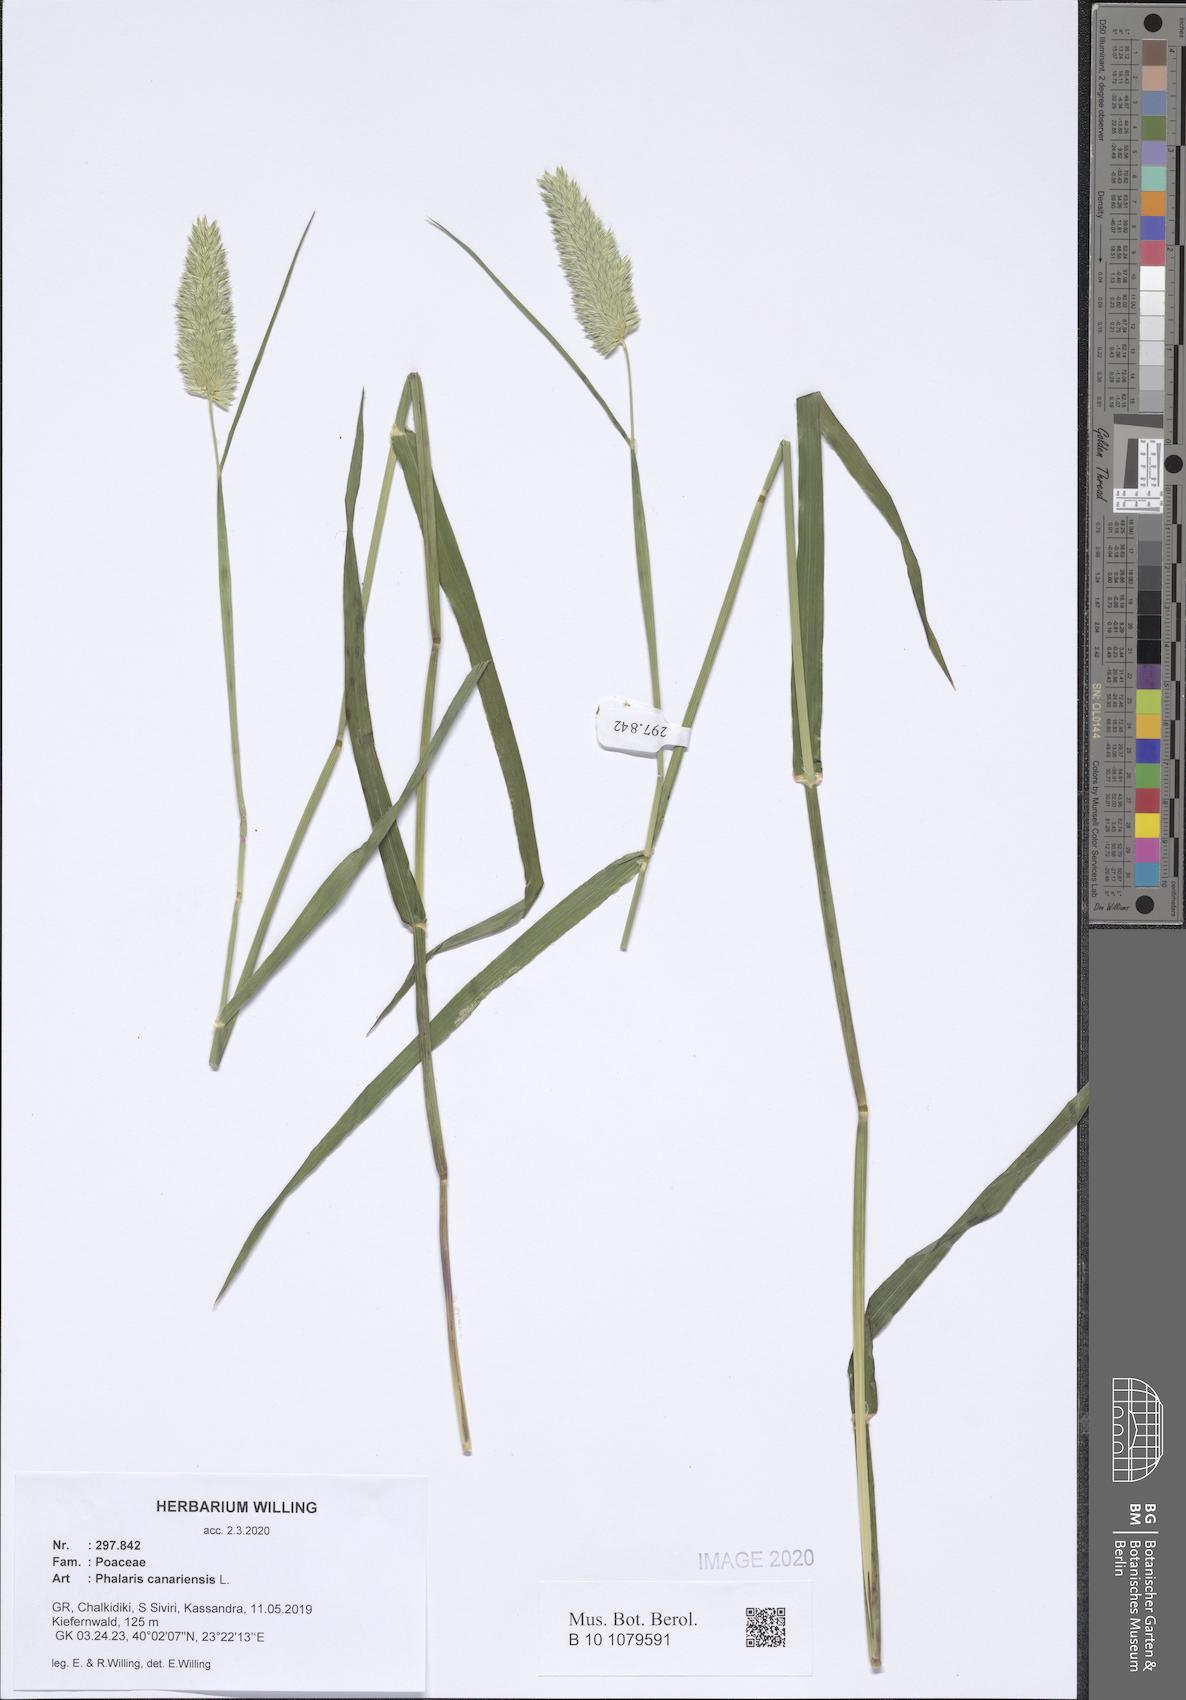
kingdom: Plantae
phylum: Tracheophyta
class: Liliopsida
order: Poales
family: Poaceae
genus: Phalaris
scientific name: Phalaris canariensis
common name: Annual canarygrass
